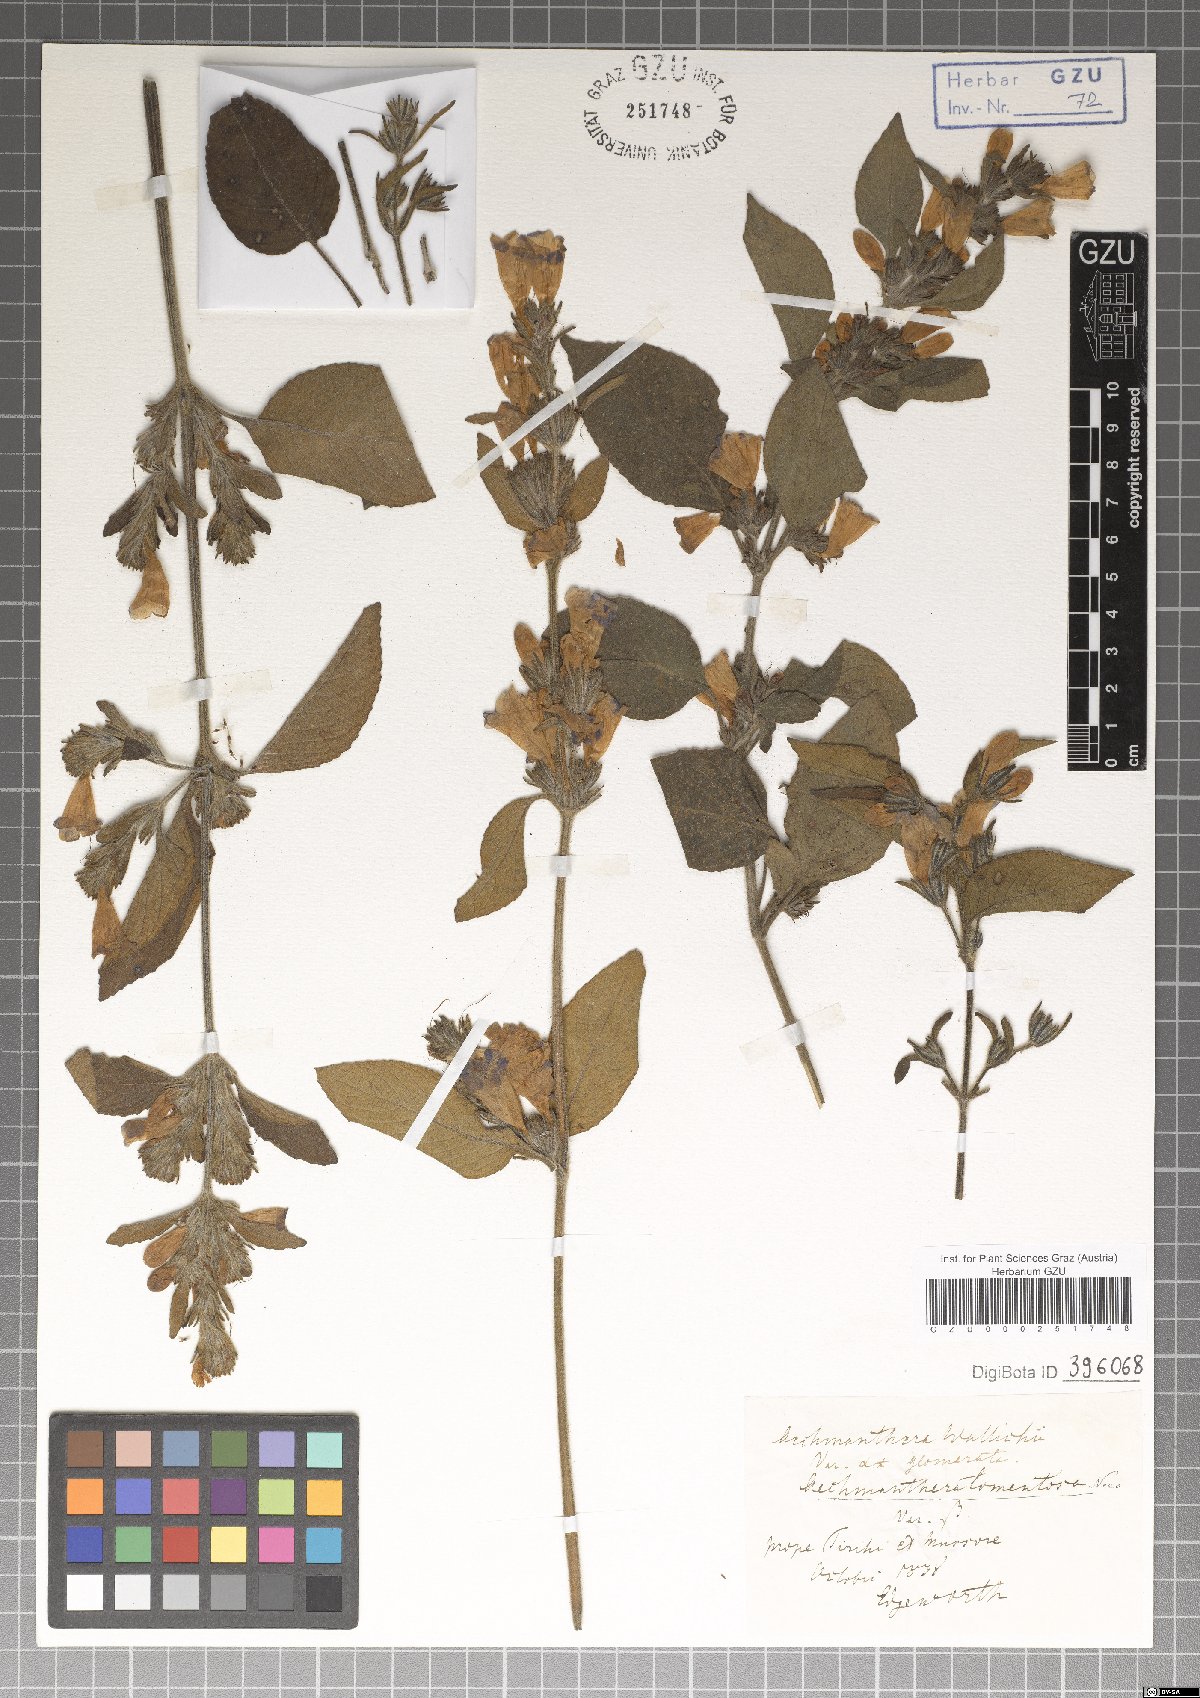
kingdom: Plantae
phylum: Tracheophyta
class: Magnoliopsida
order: Lamiales
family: Acanthaceae
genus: Strobilanthes
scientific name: Strobilanthes tomentosa
